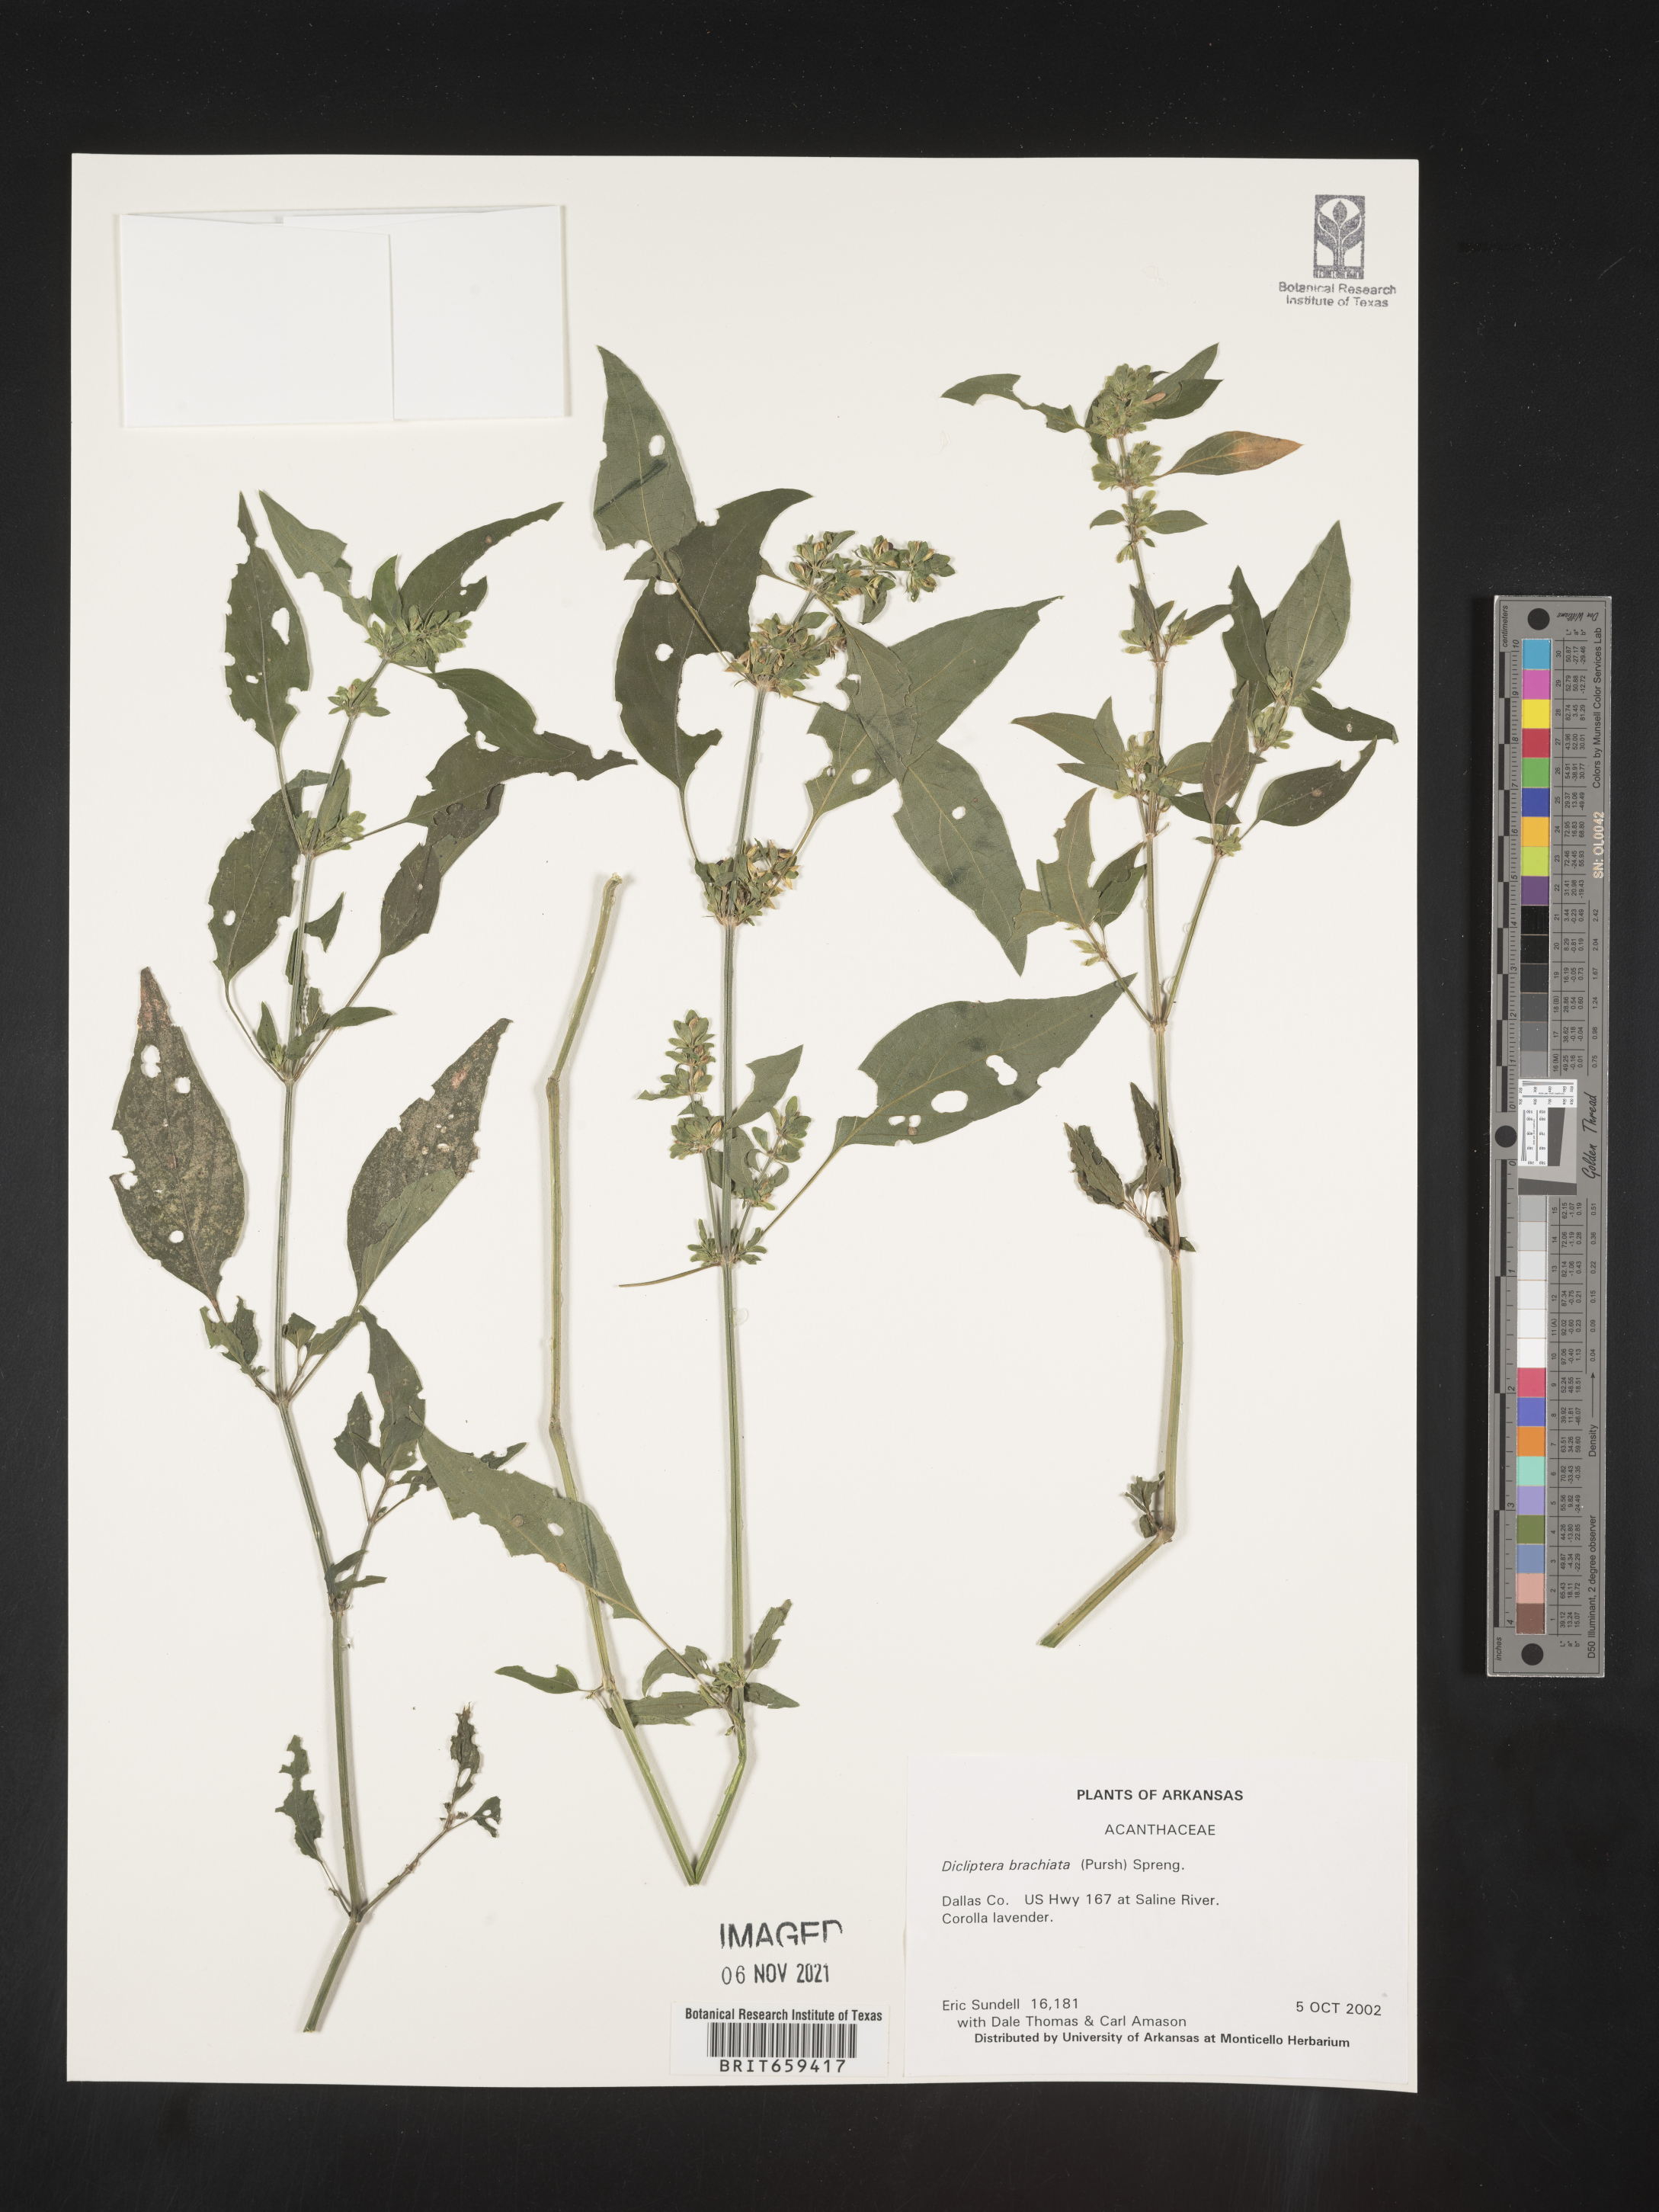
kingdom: Plantae
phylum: Tracheophyta
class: Magnoliopsida
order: Lamiales
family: Acanthaceae
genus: Dicliptera
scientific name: Dicliptera brachiata
